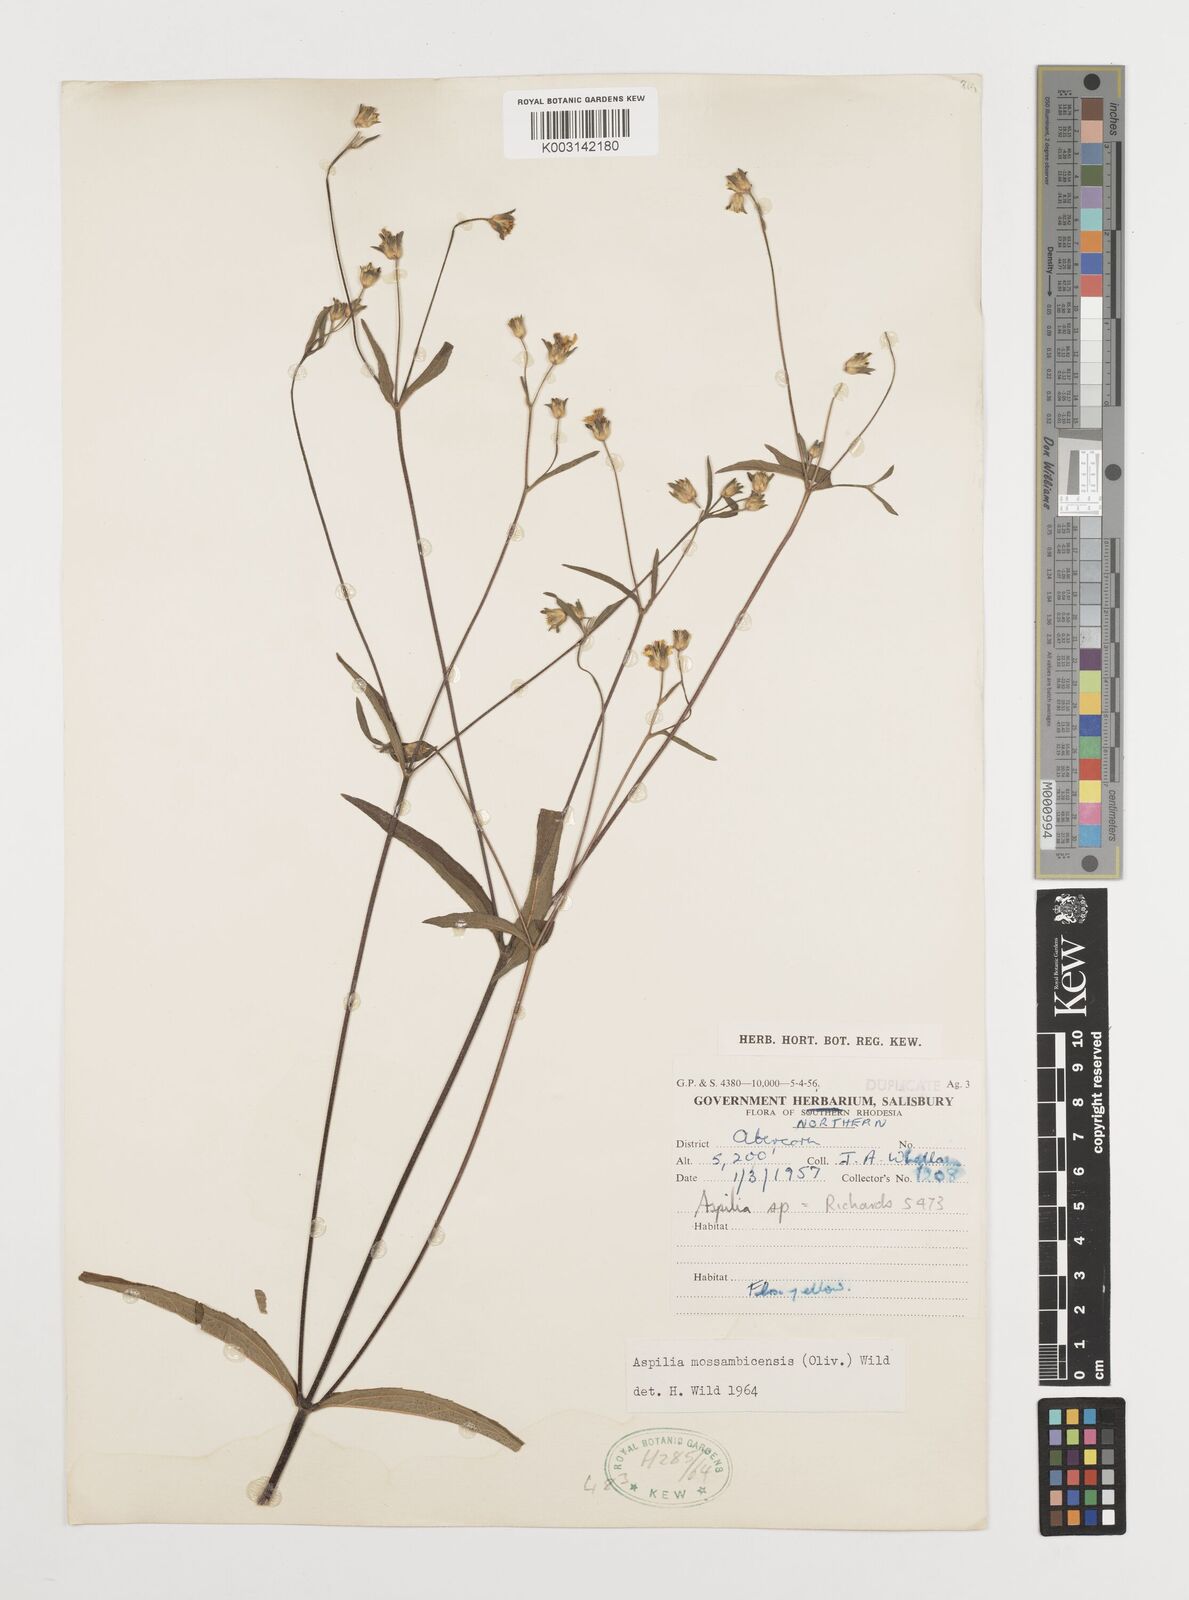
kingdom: Plantae
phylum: Tracheophyta
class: Magnoliopsida
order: Asterales
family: Asteraceae
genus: Aspilia
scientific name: Aspilia mossambicensis
